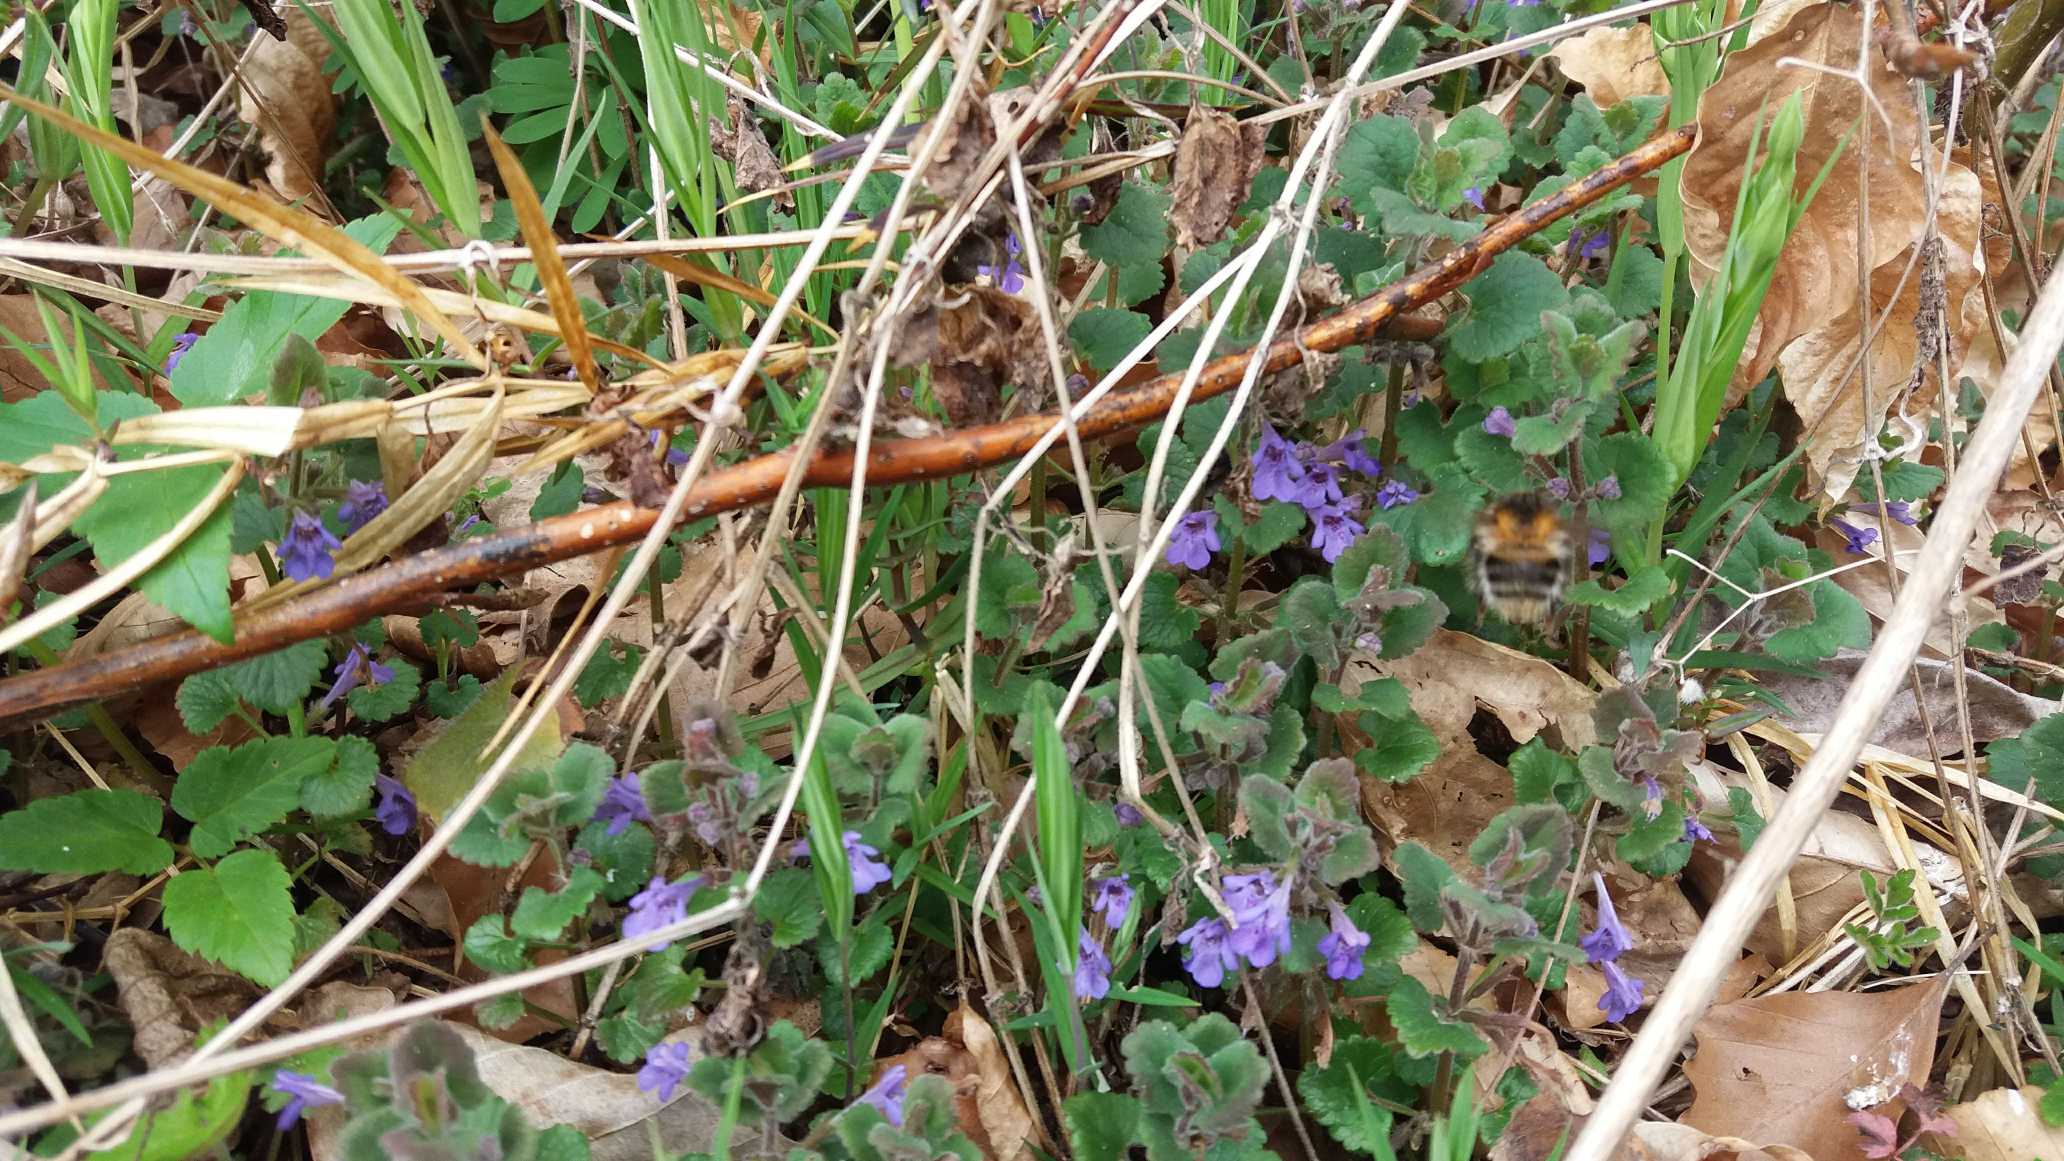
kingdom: Plantae
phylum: Tracheophyta
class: Magnoliopsida
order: Lamiales
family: Lamiaceae
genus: Glechoma
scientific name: Glechoma hederacea
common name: Korsknap
